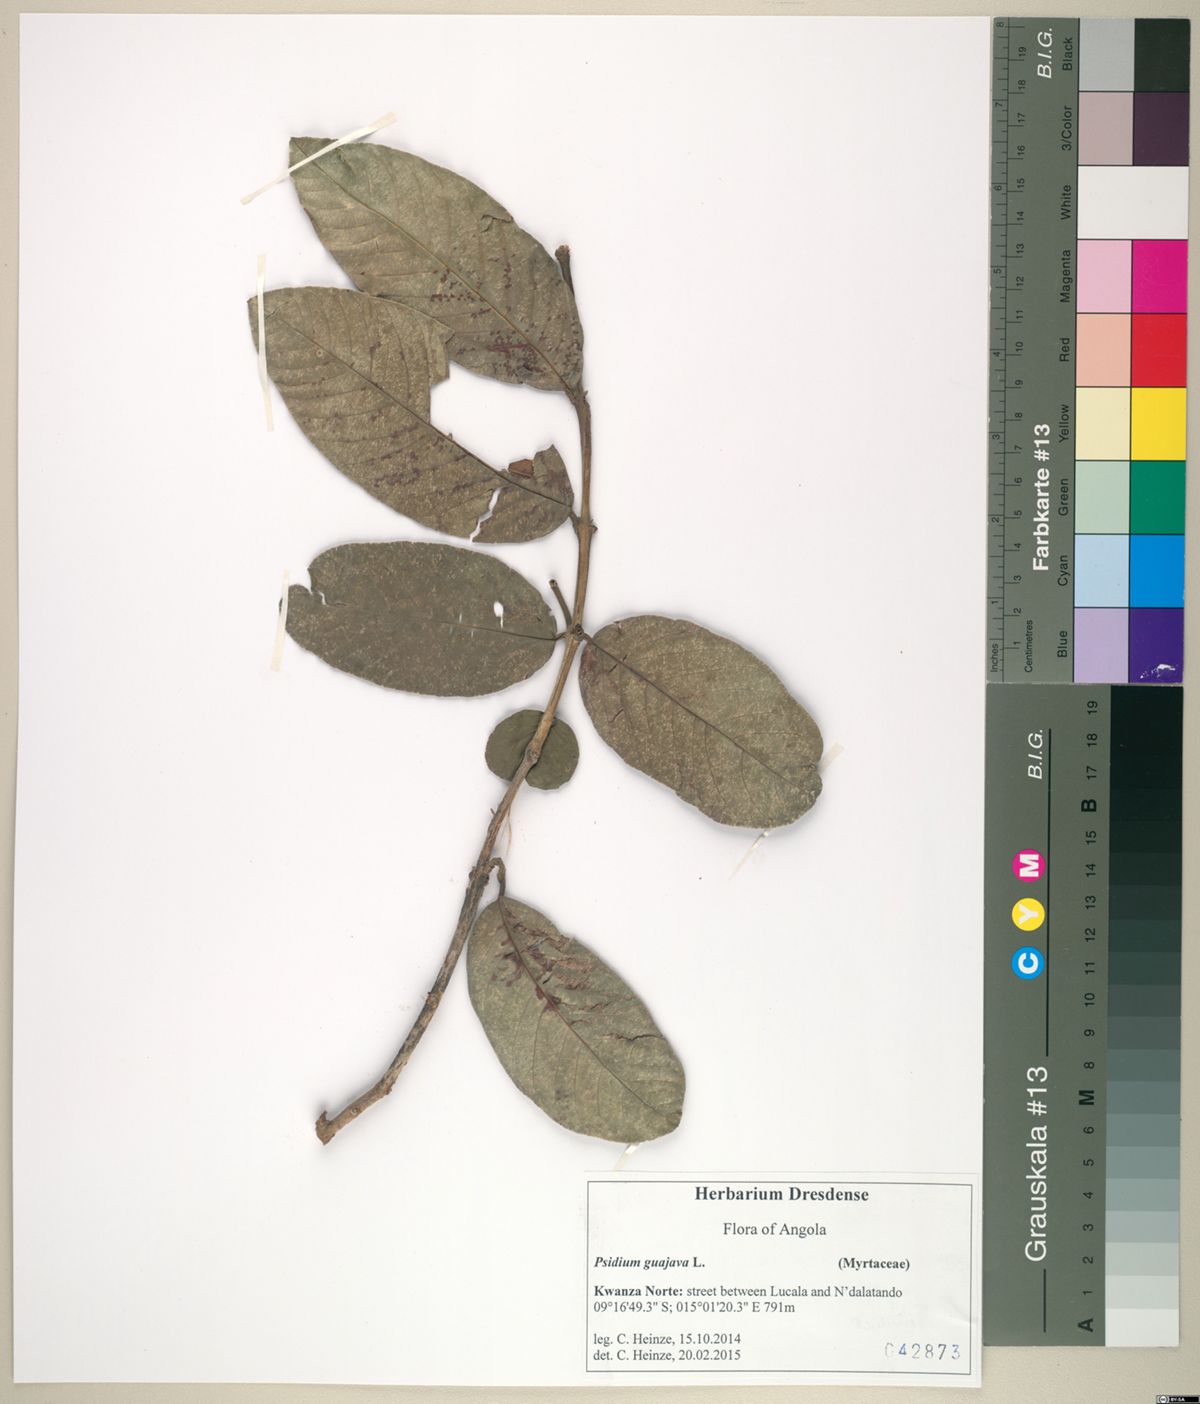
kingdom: Plantae
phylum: Tracheophyta
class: Magnoliopsida
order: Myrtales
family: Myrtaceae
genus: Psidium
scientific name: Psidium guajava
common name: Guava
